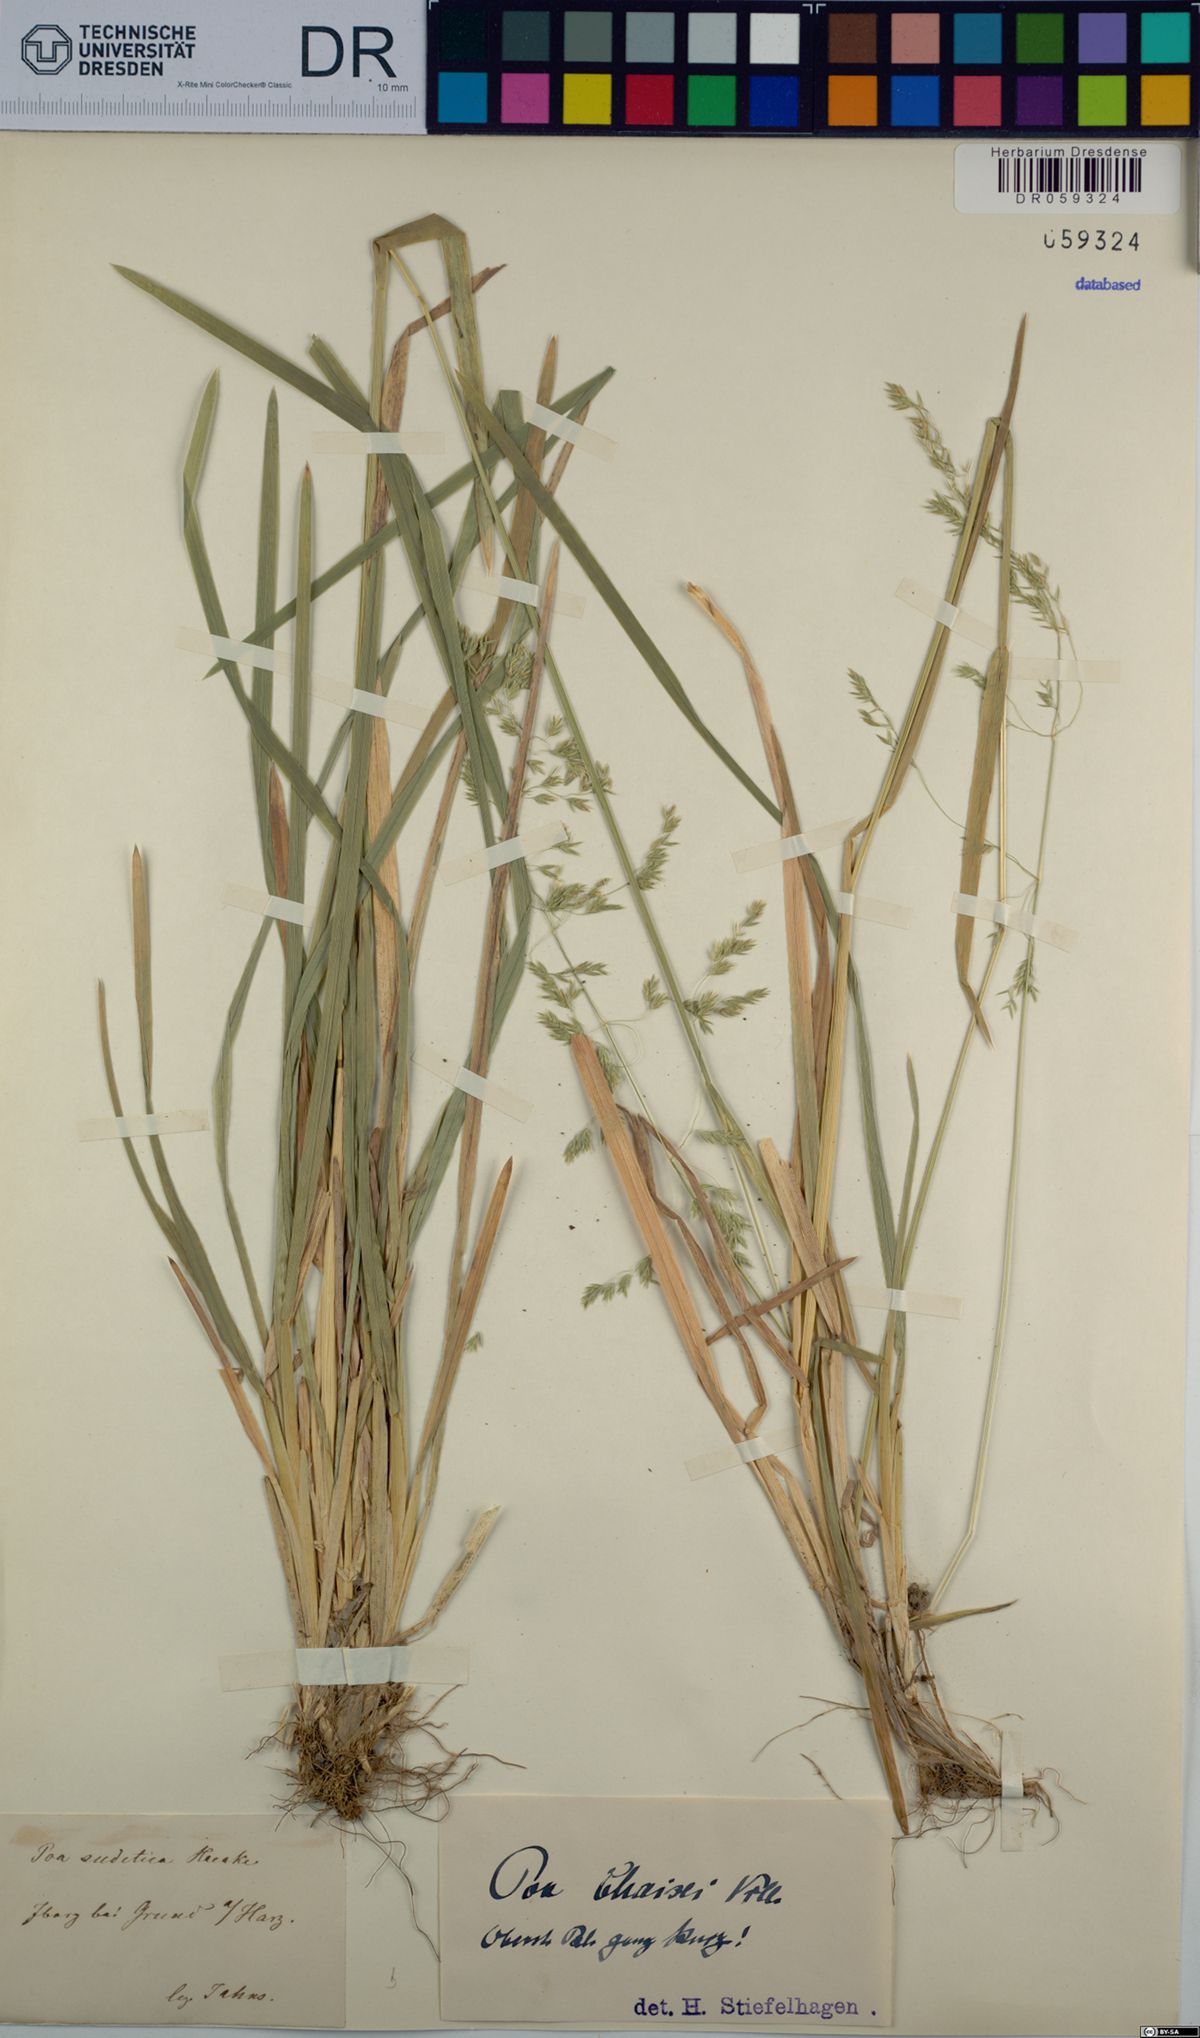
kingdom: Plantae
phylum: Tracheophyta
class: Liliopsida
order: Poales
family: Poaceae
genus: Poa
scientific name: Poa chaixii
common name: Broad-leaved meadow-grass
